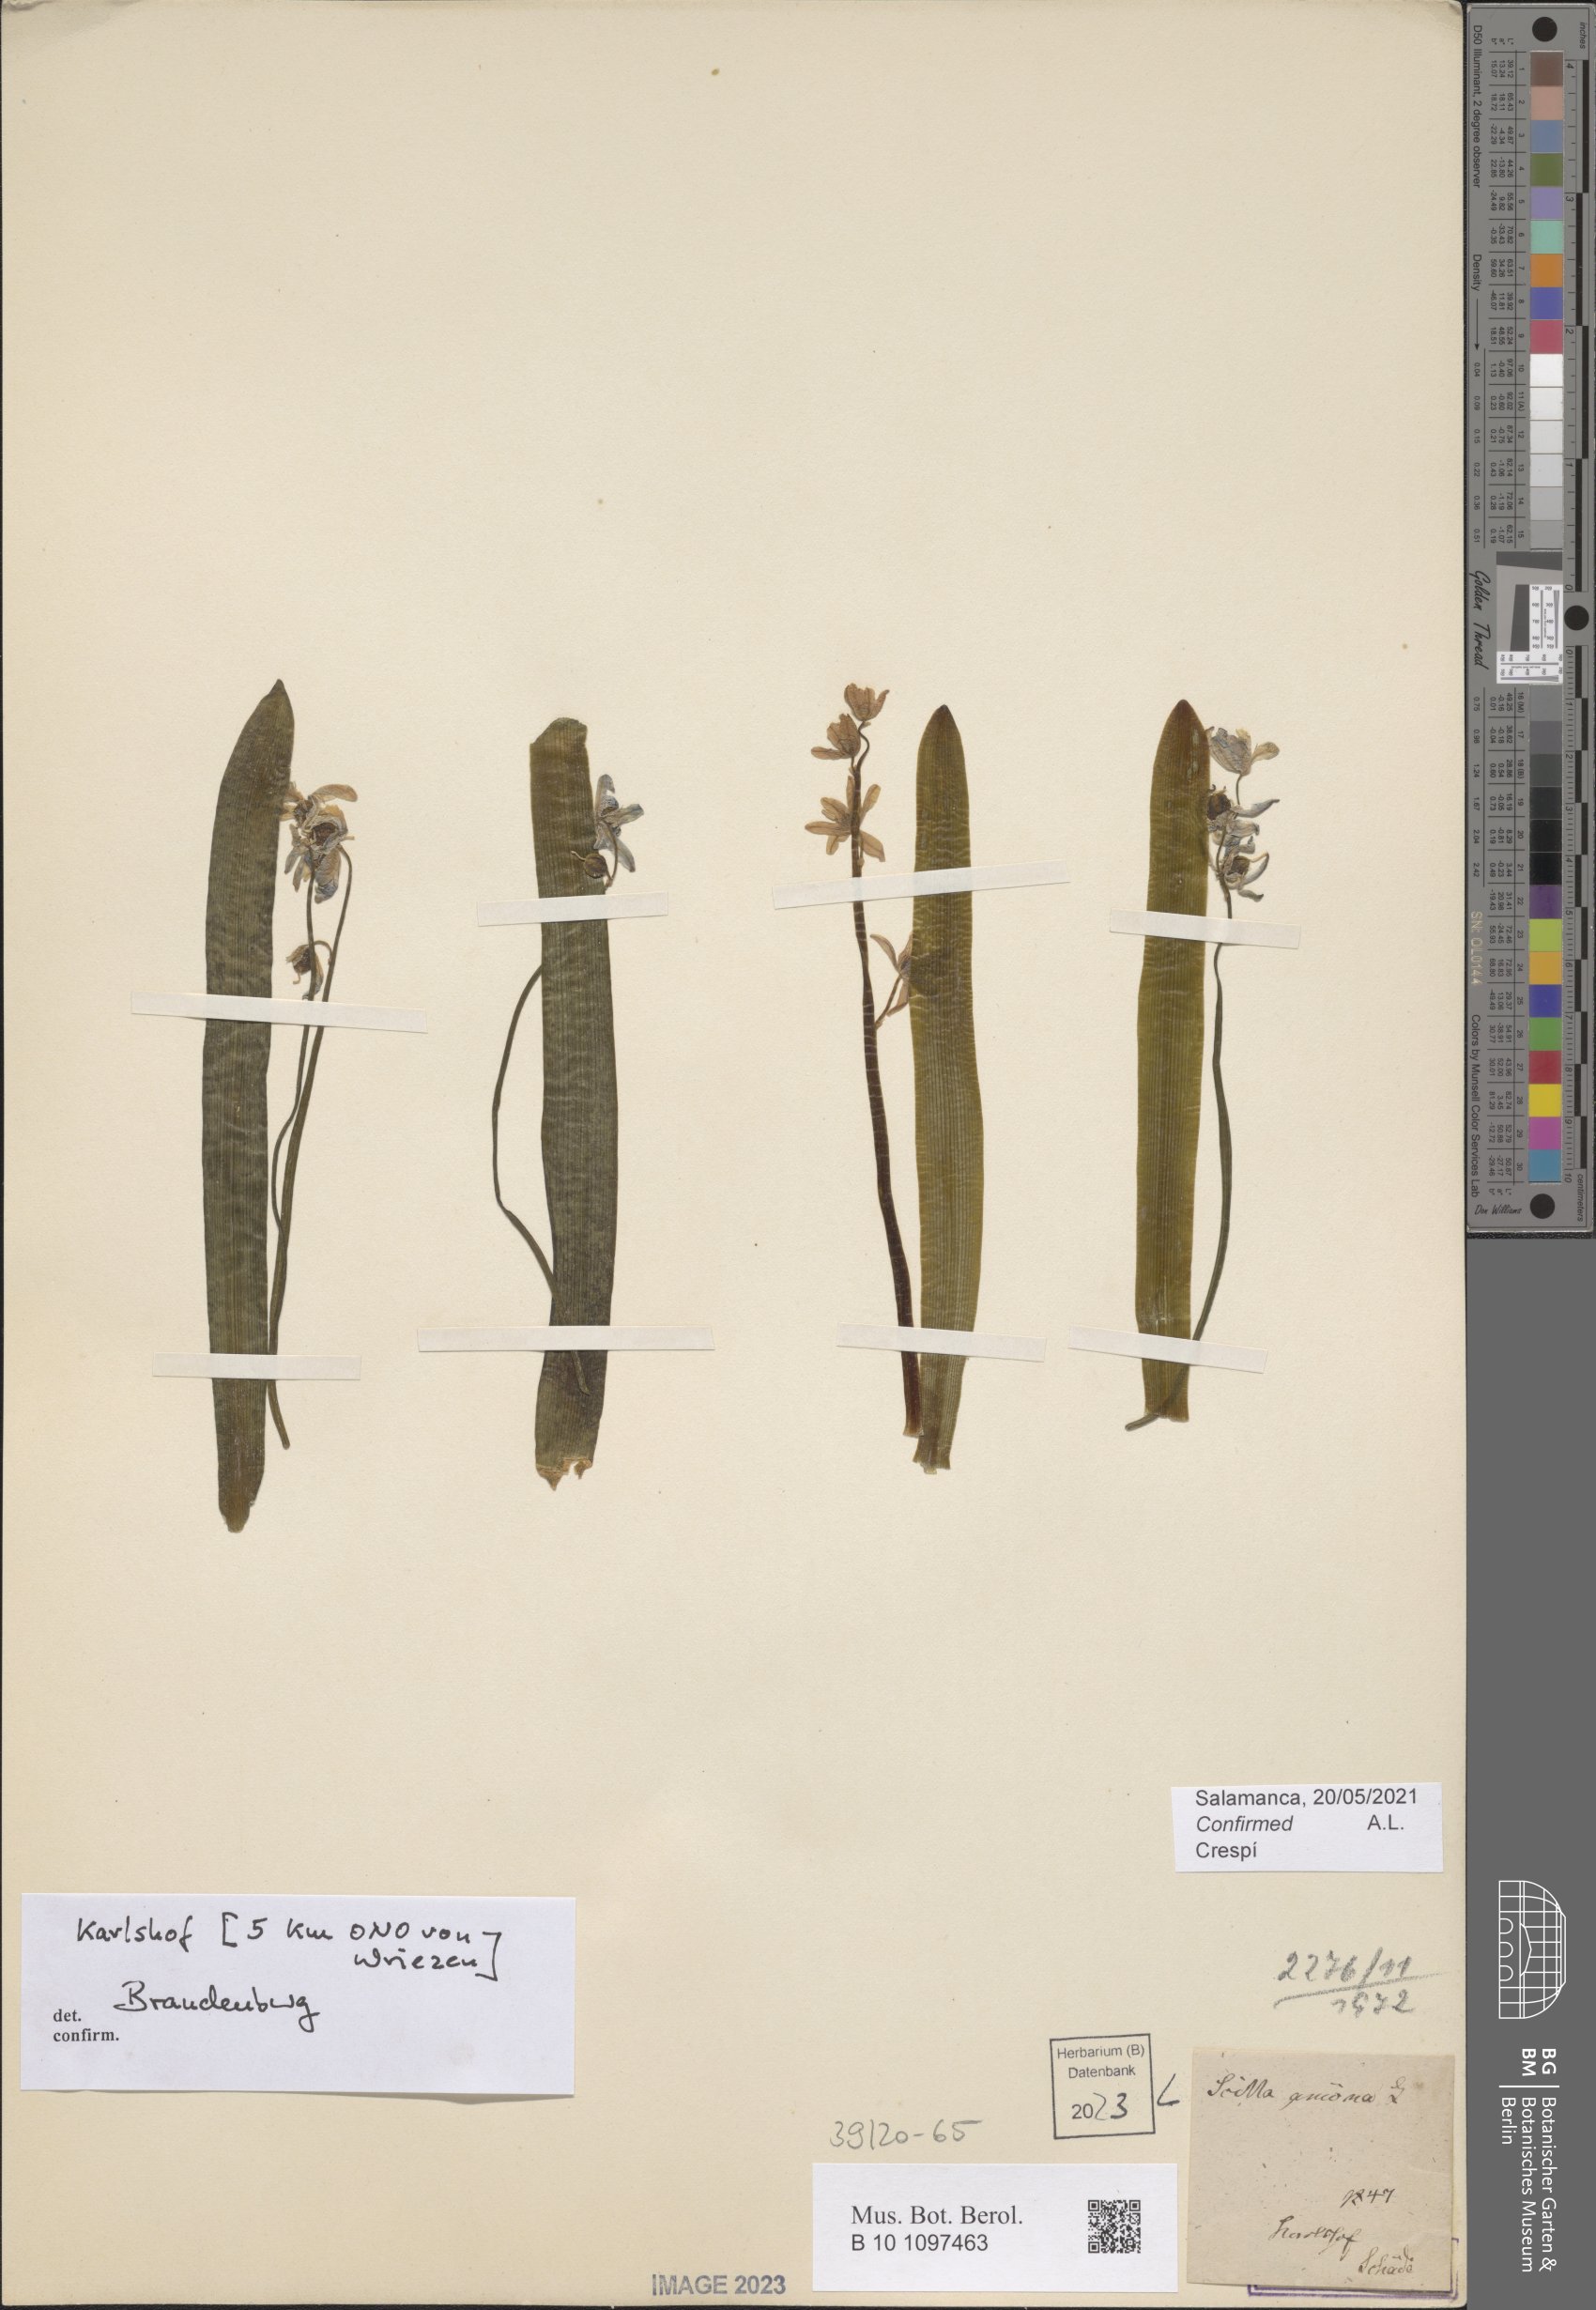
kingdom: Plantae
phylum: Tracheophyta
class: Liliopsida
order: Asparagales
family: Asparagaceae
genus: Scilla
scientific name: Scilla amoena
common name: Star-hyacinth
